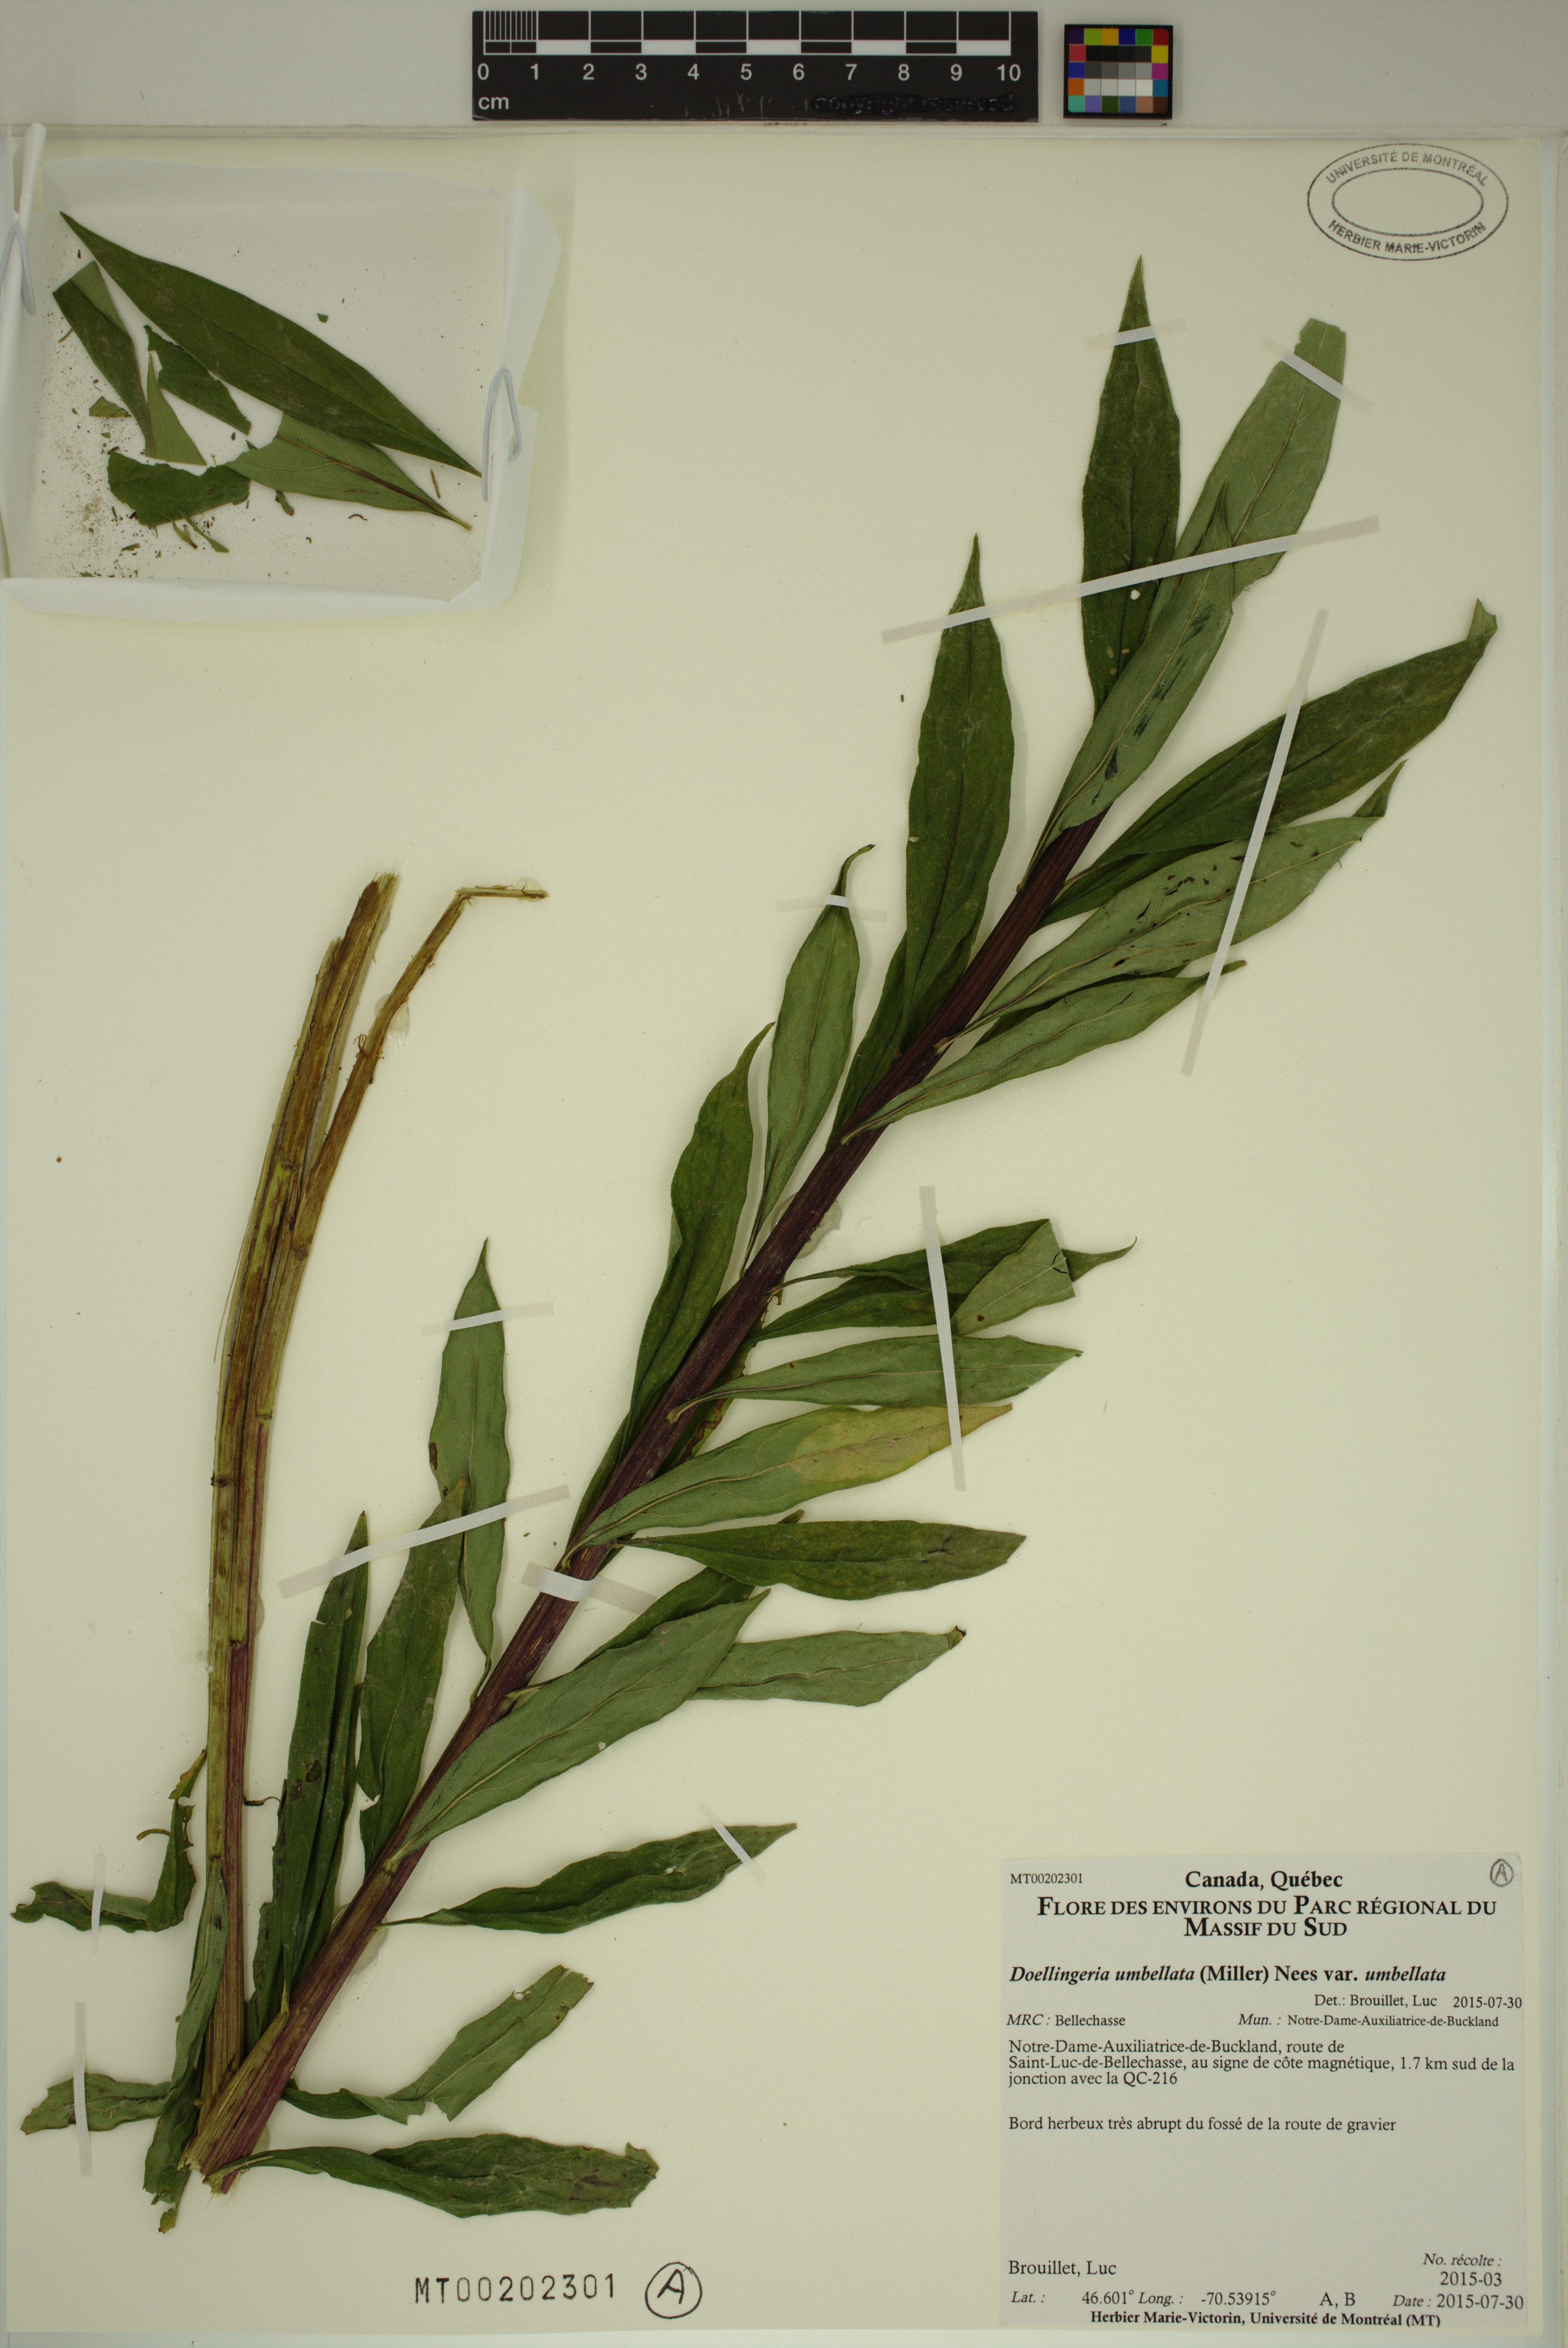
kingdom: Plantae
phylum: Tracheophyta
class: Magnoliopsida
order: Asterales
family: Asteraceae
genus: Doellingeria
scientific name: Doellingeria umbellata
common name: Flat-top white aster
